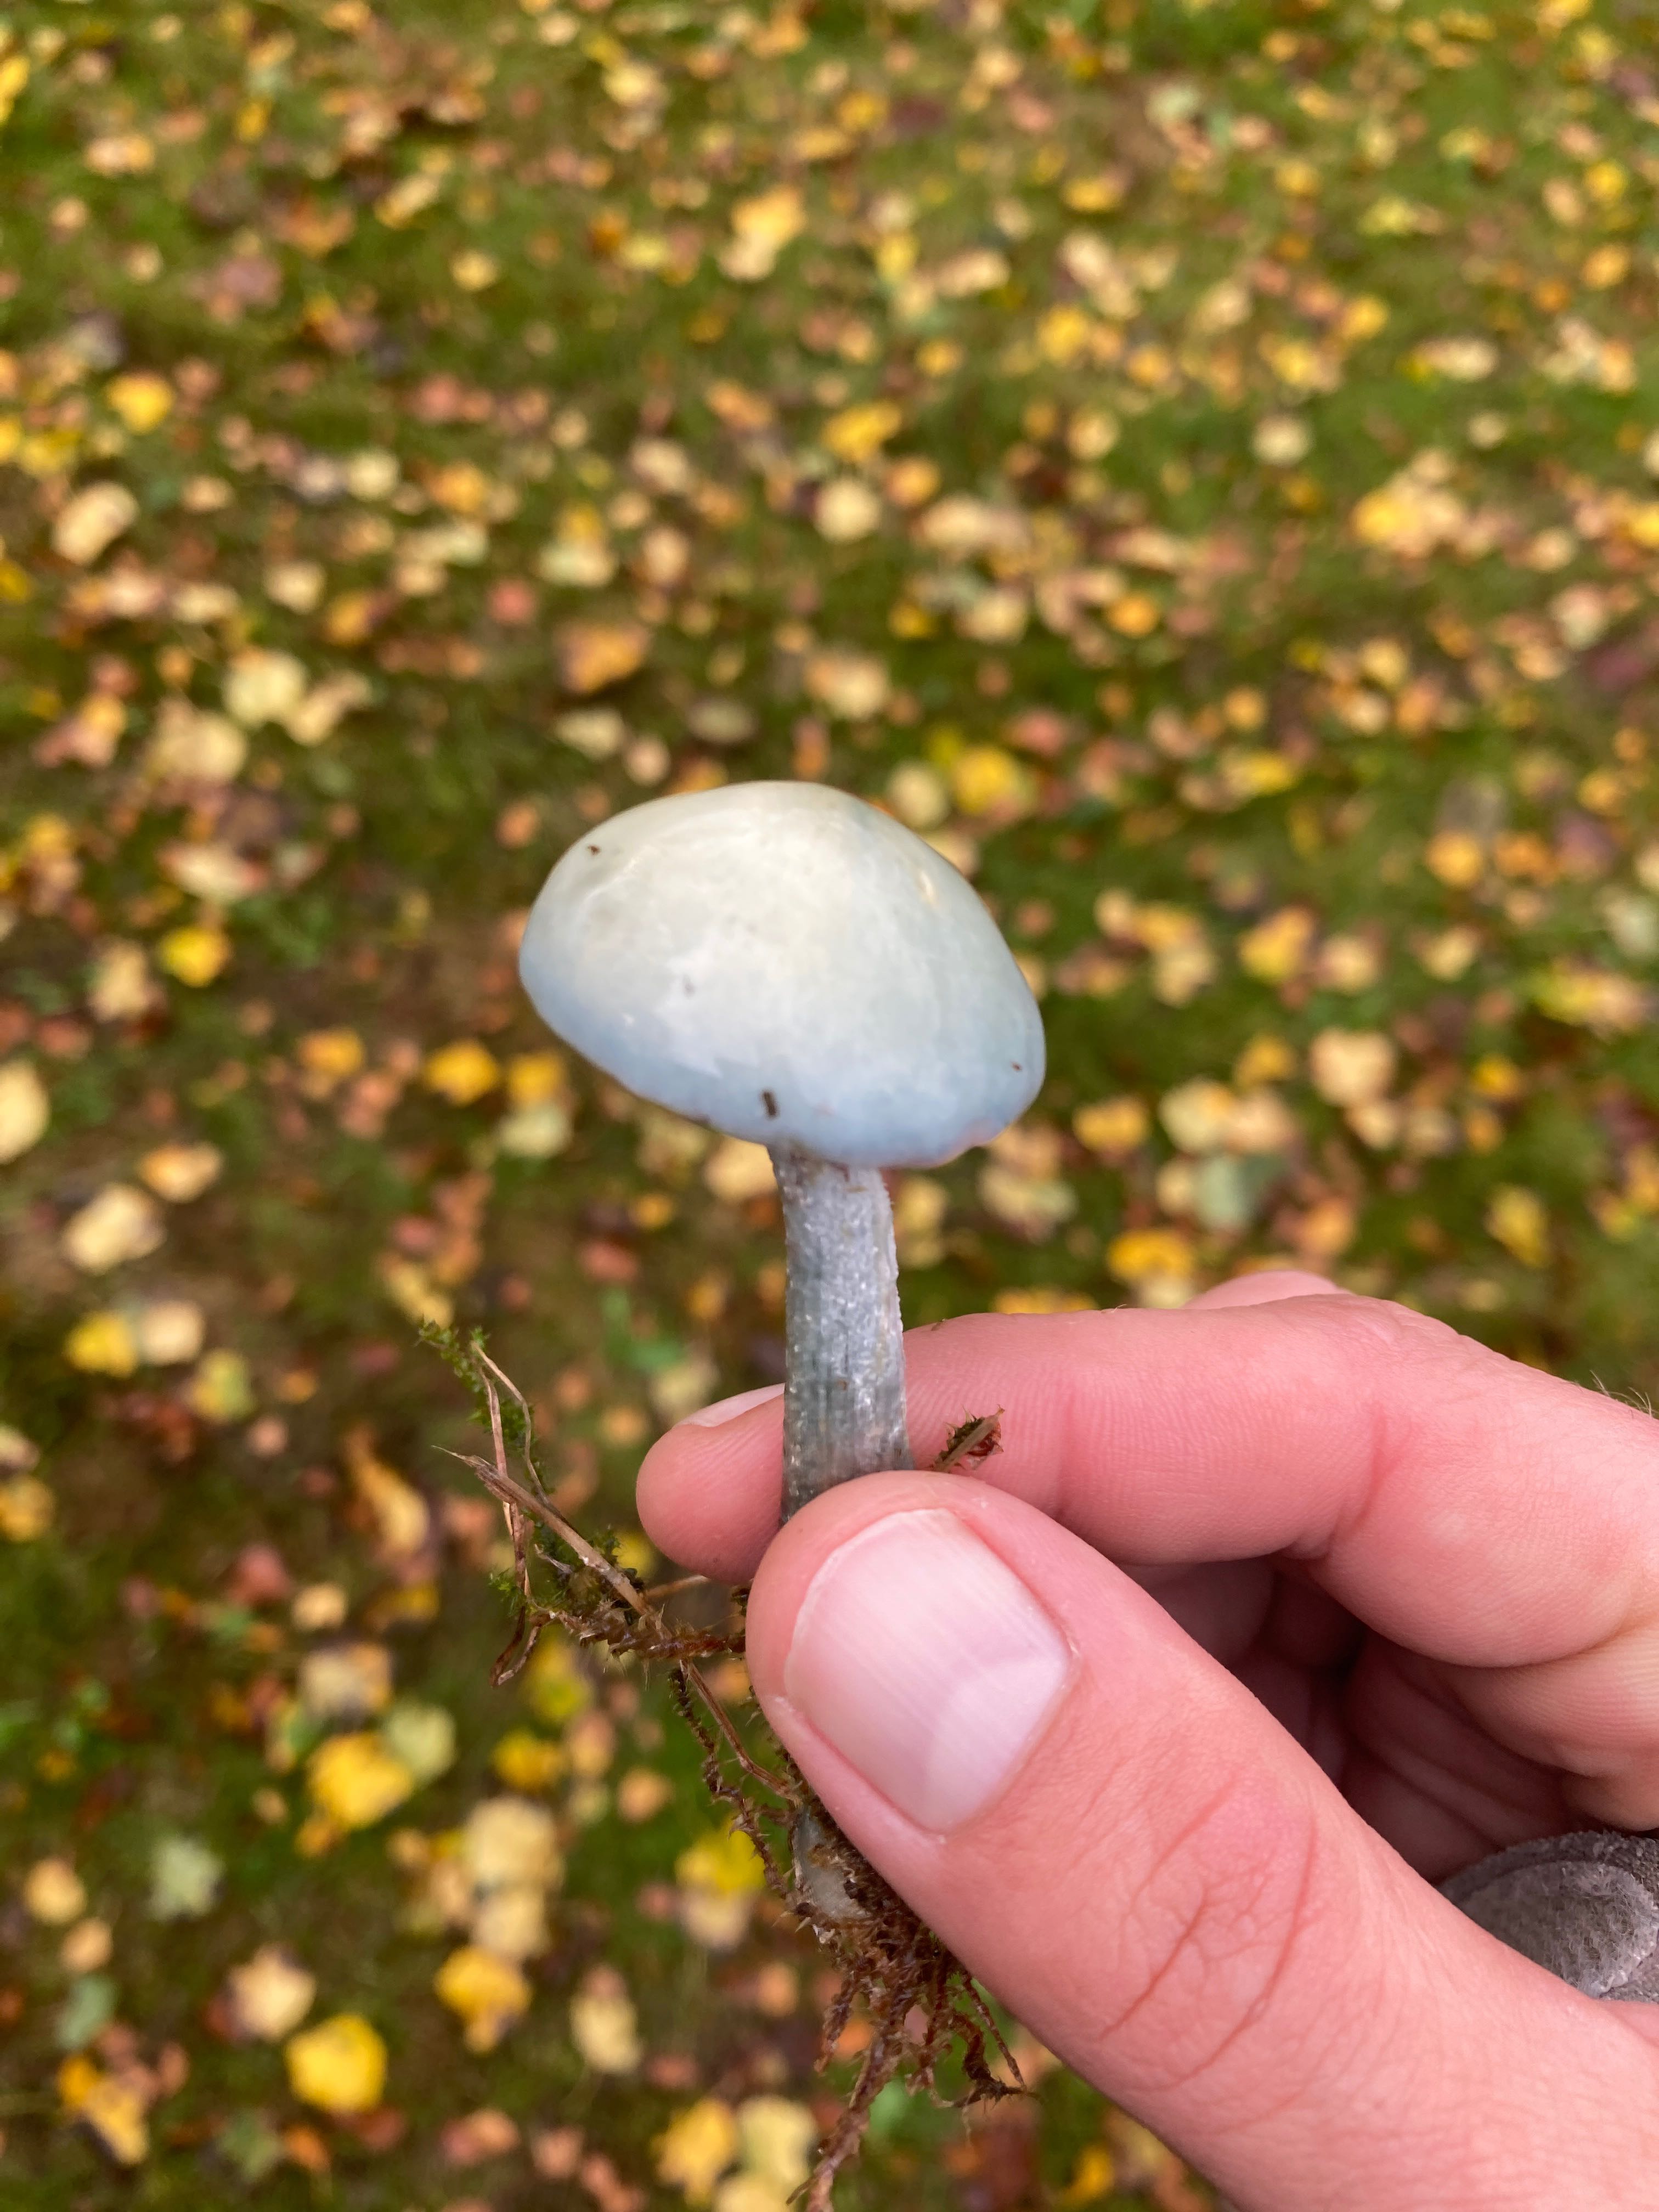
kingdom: Fungi
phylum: Basidiomycota
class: Agaricomycetes
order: Agaricales
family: Strophariaceae
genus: Stropharia
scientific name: Stropharia cyanea
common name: blågrøn bredblad
